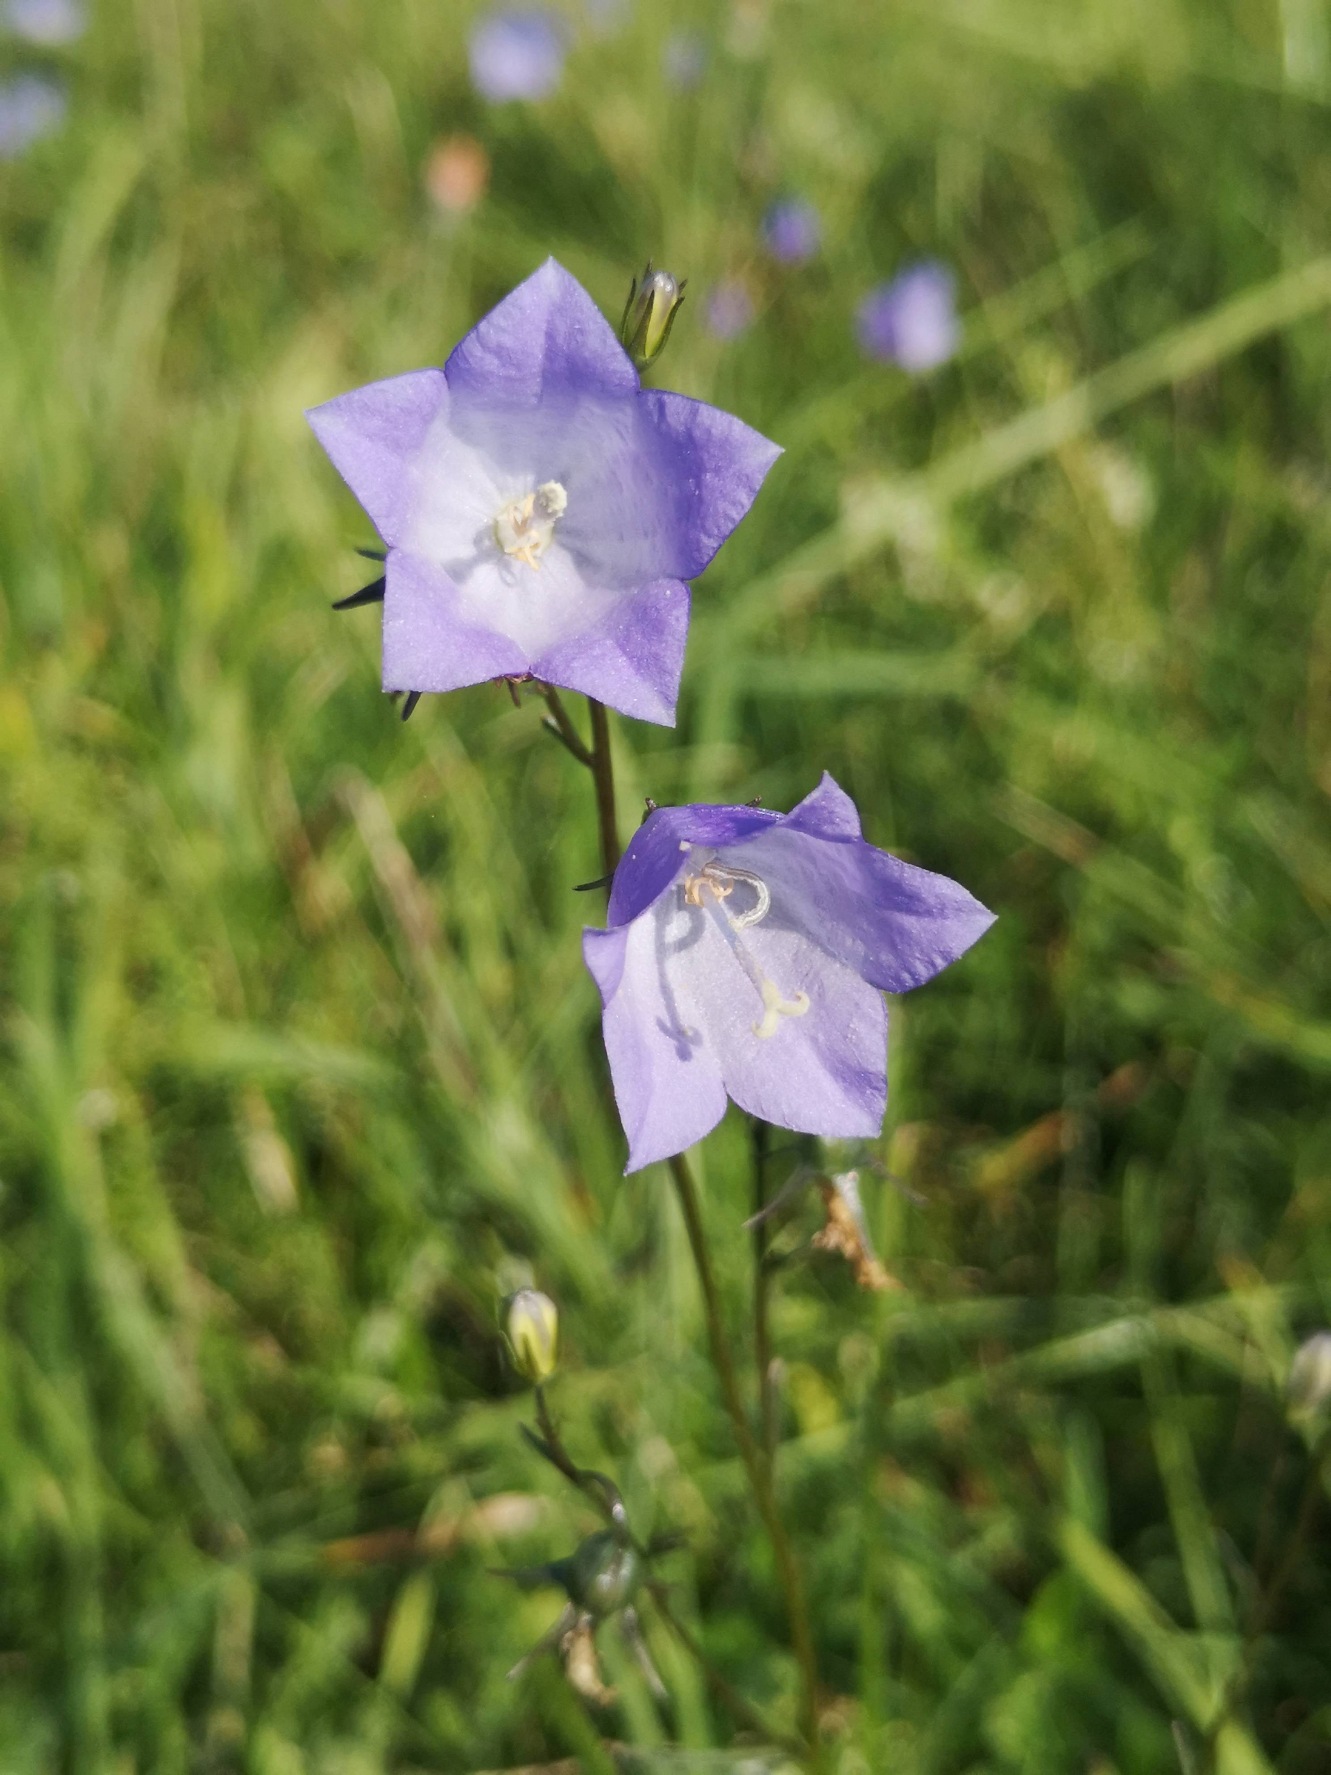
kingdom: Plantae
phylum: Tracheophyta
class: Magnoliopsida
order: Asterales
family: Campanulaceae
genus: Campanula
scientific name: Campanula rotundifolia
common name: Liden klokke
